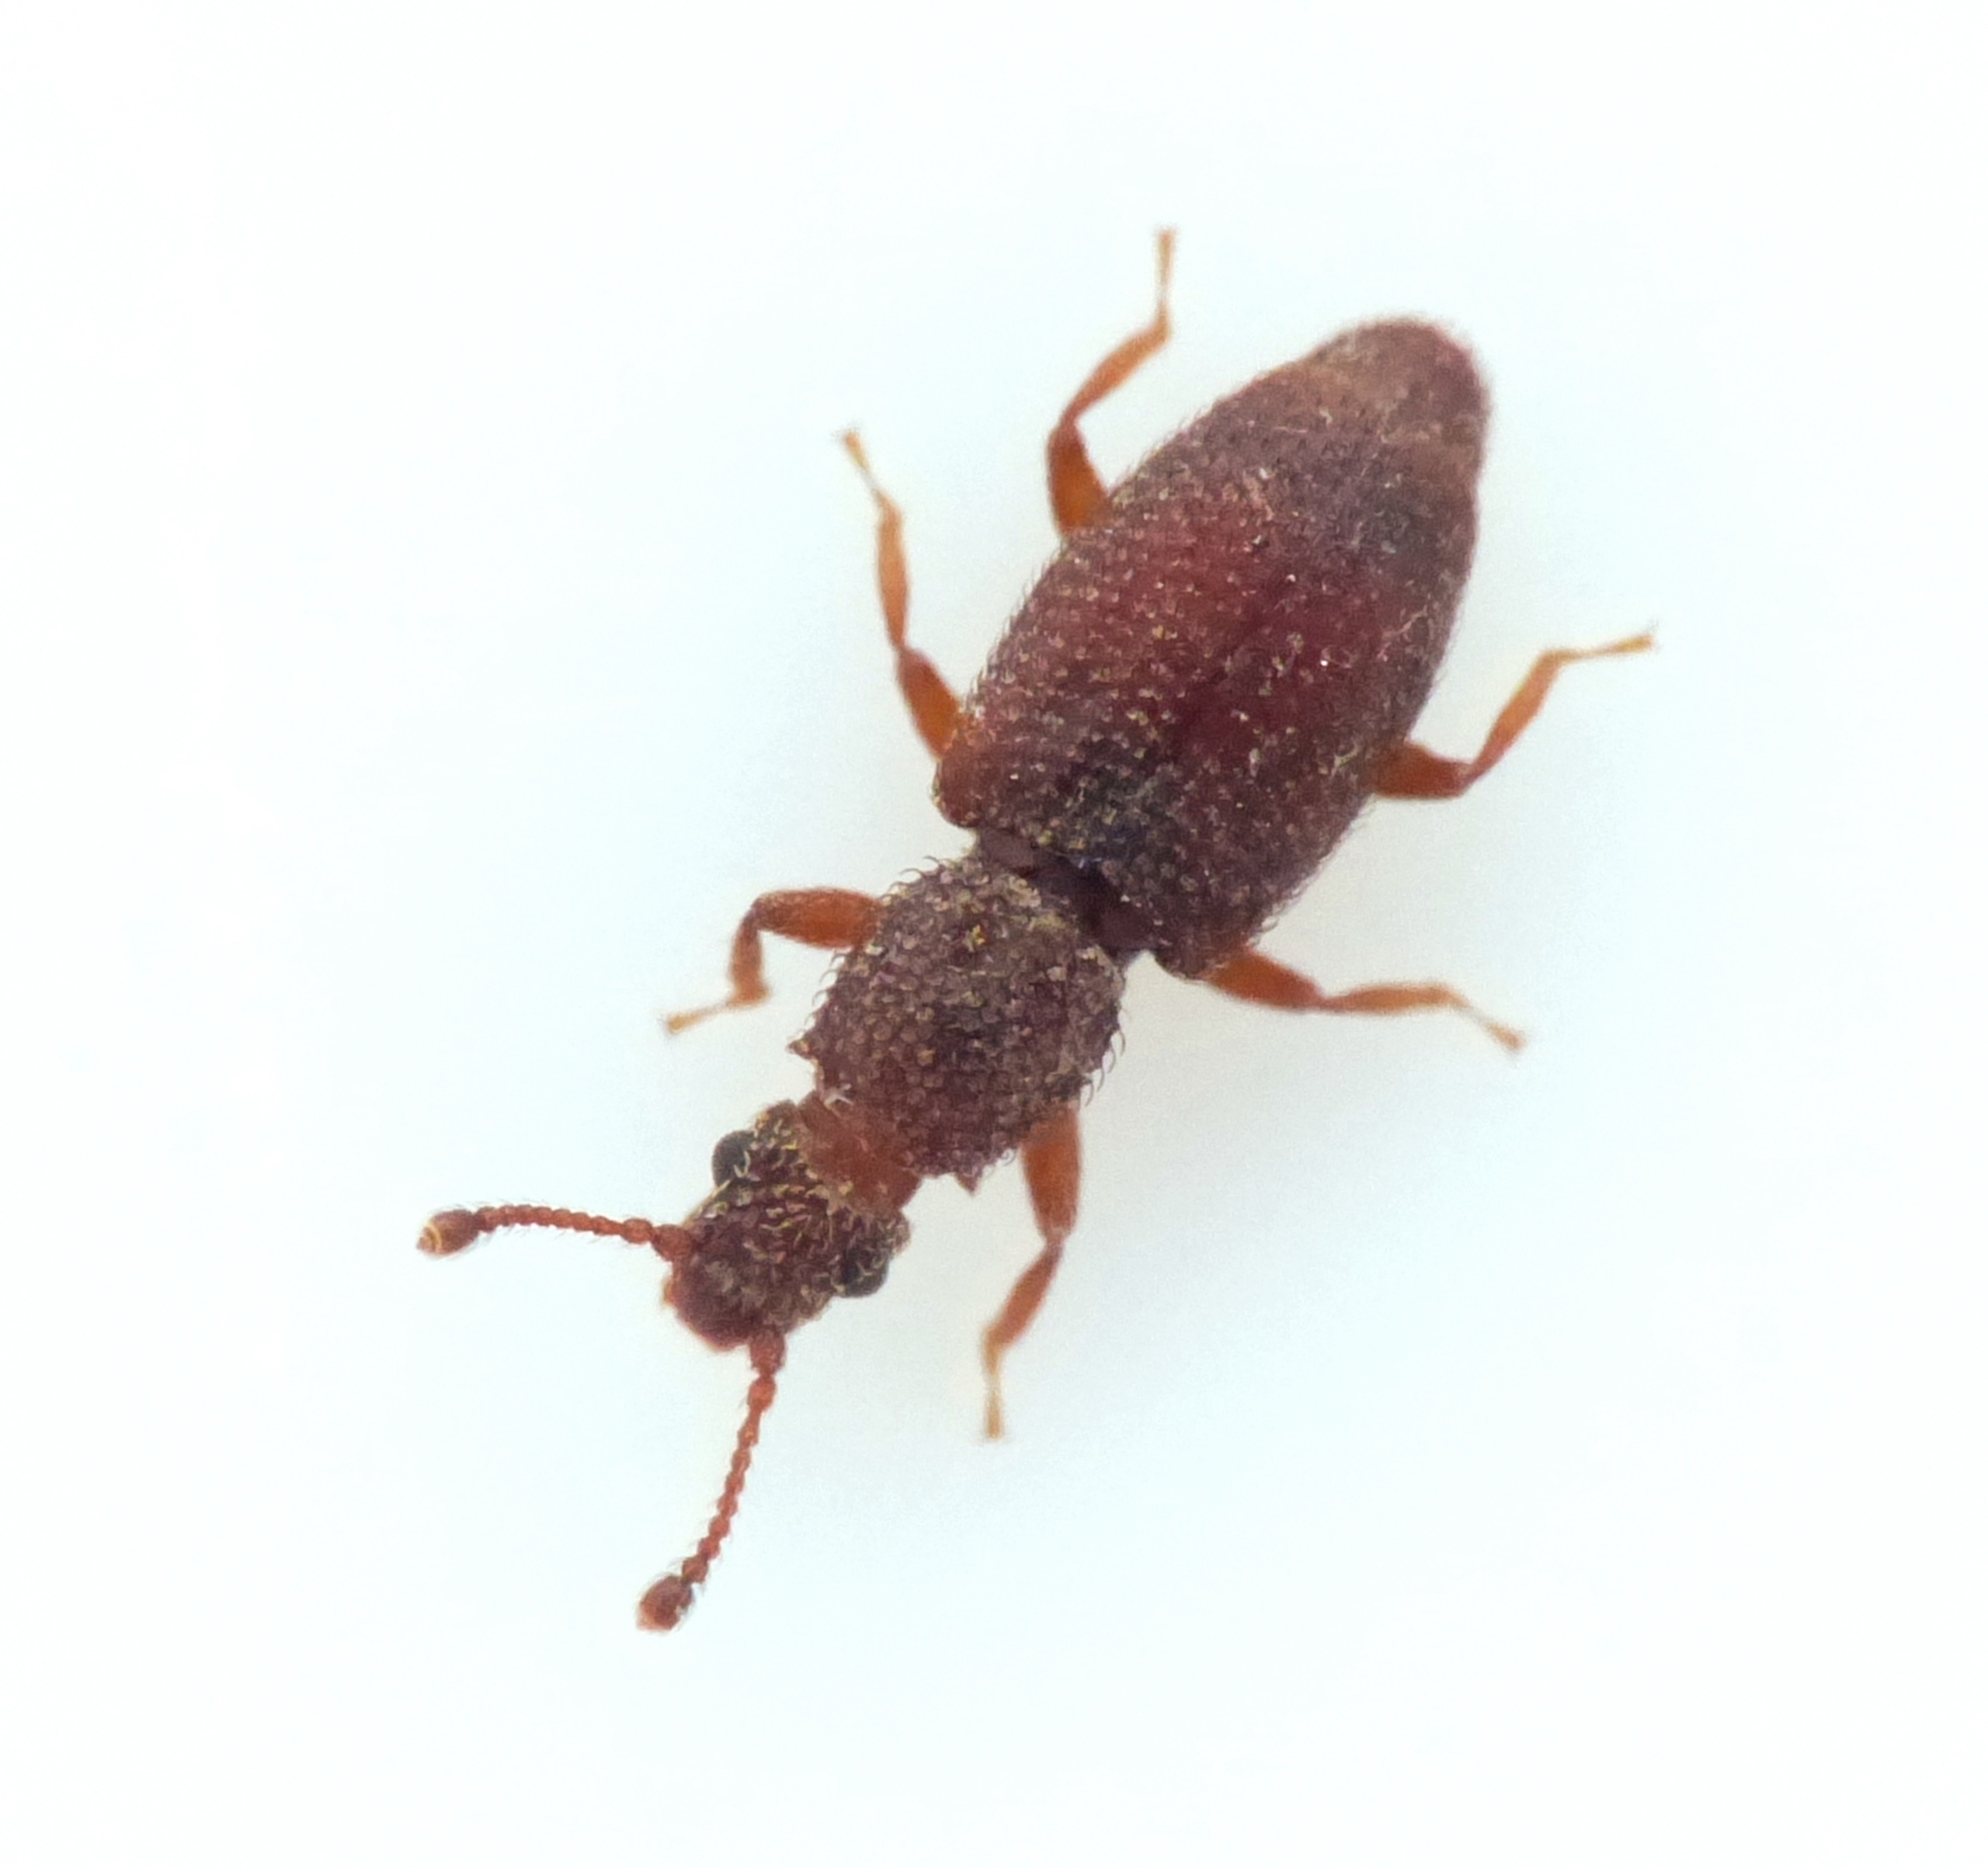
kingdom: Animalia
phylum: Arthropoda
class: Insecta
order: Coleoptera
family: Monotomidae
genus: Monotoma
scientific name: Monotoma spinicollis
